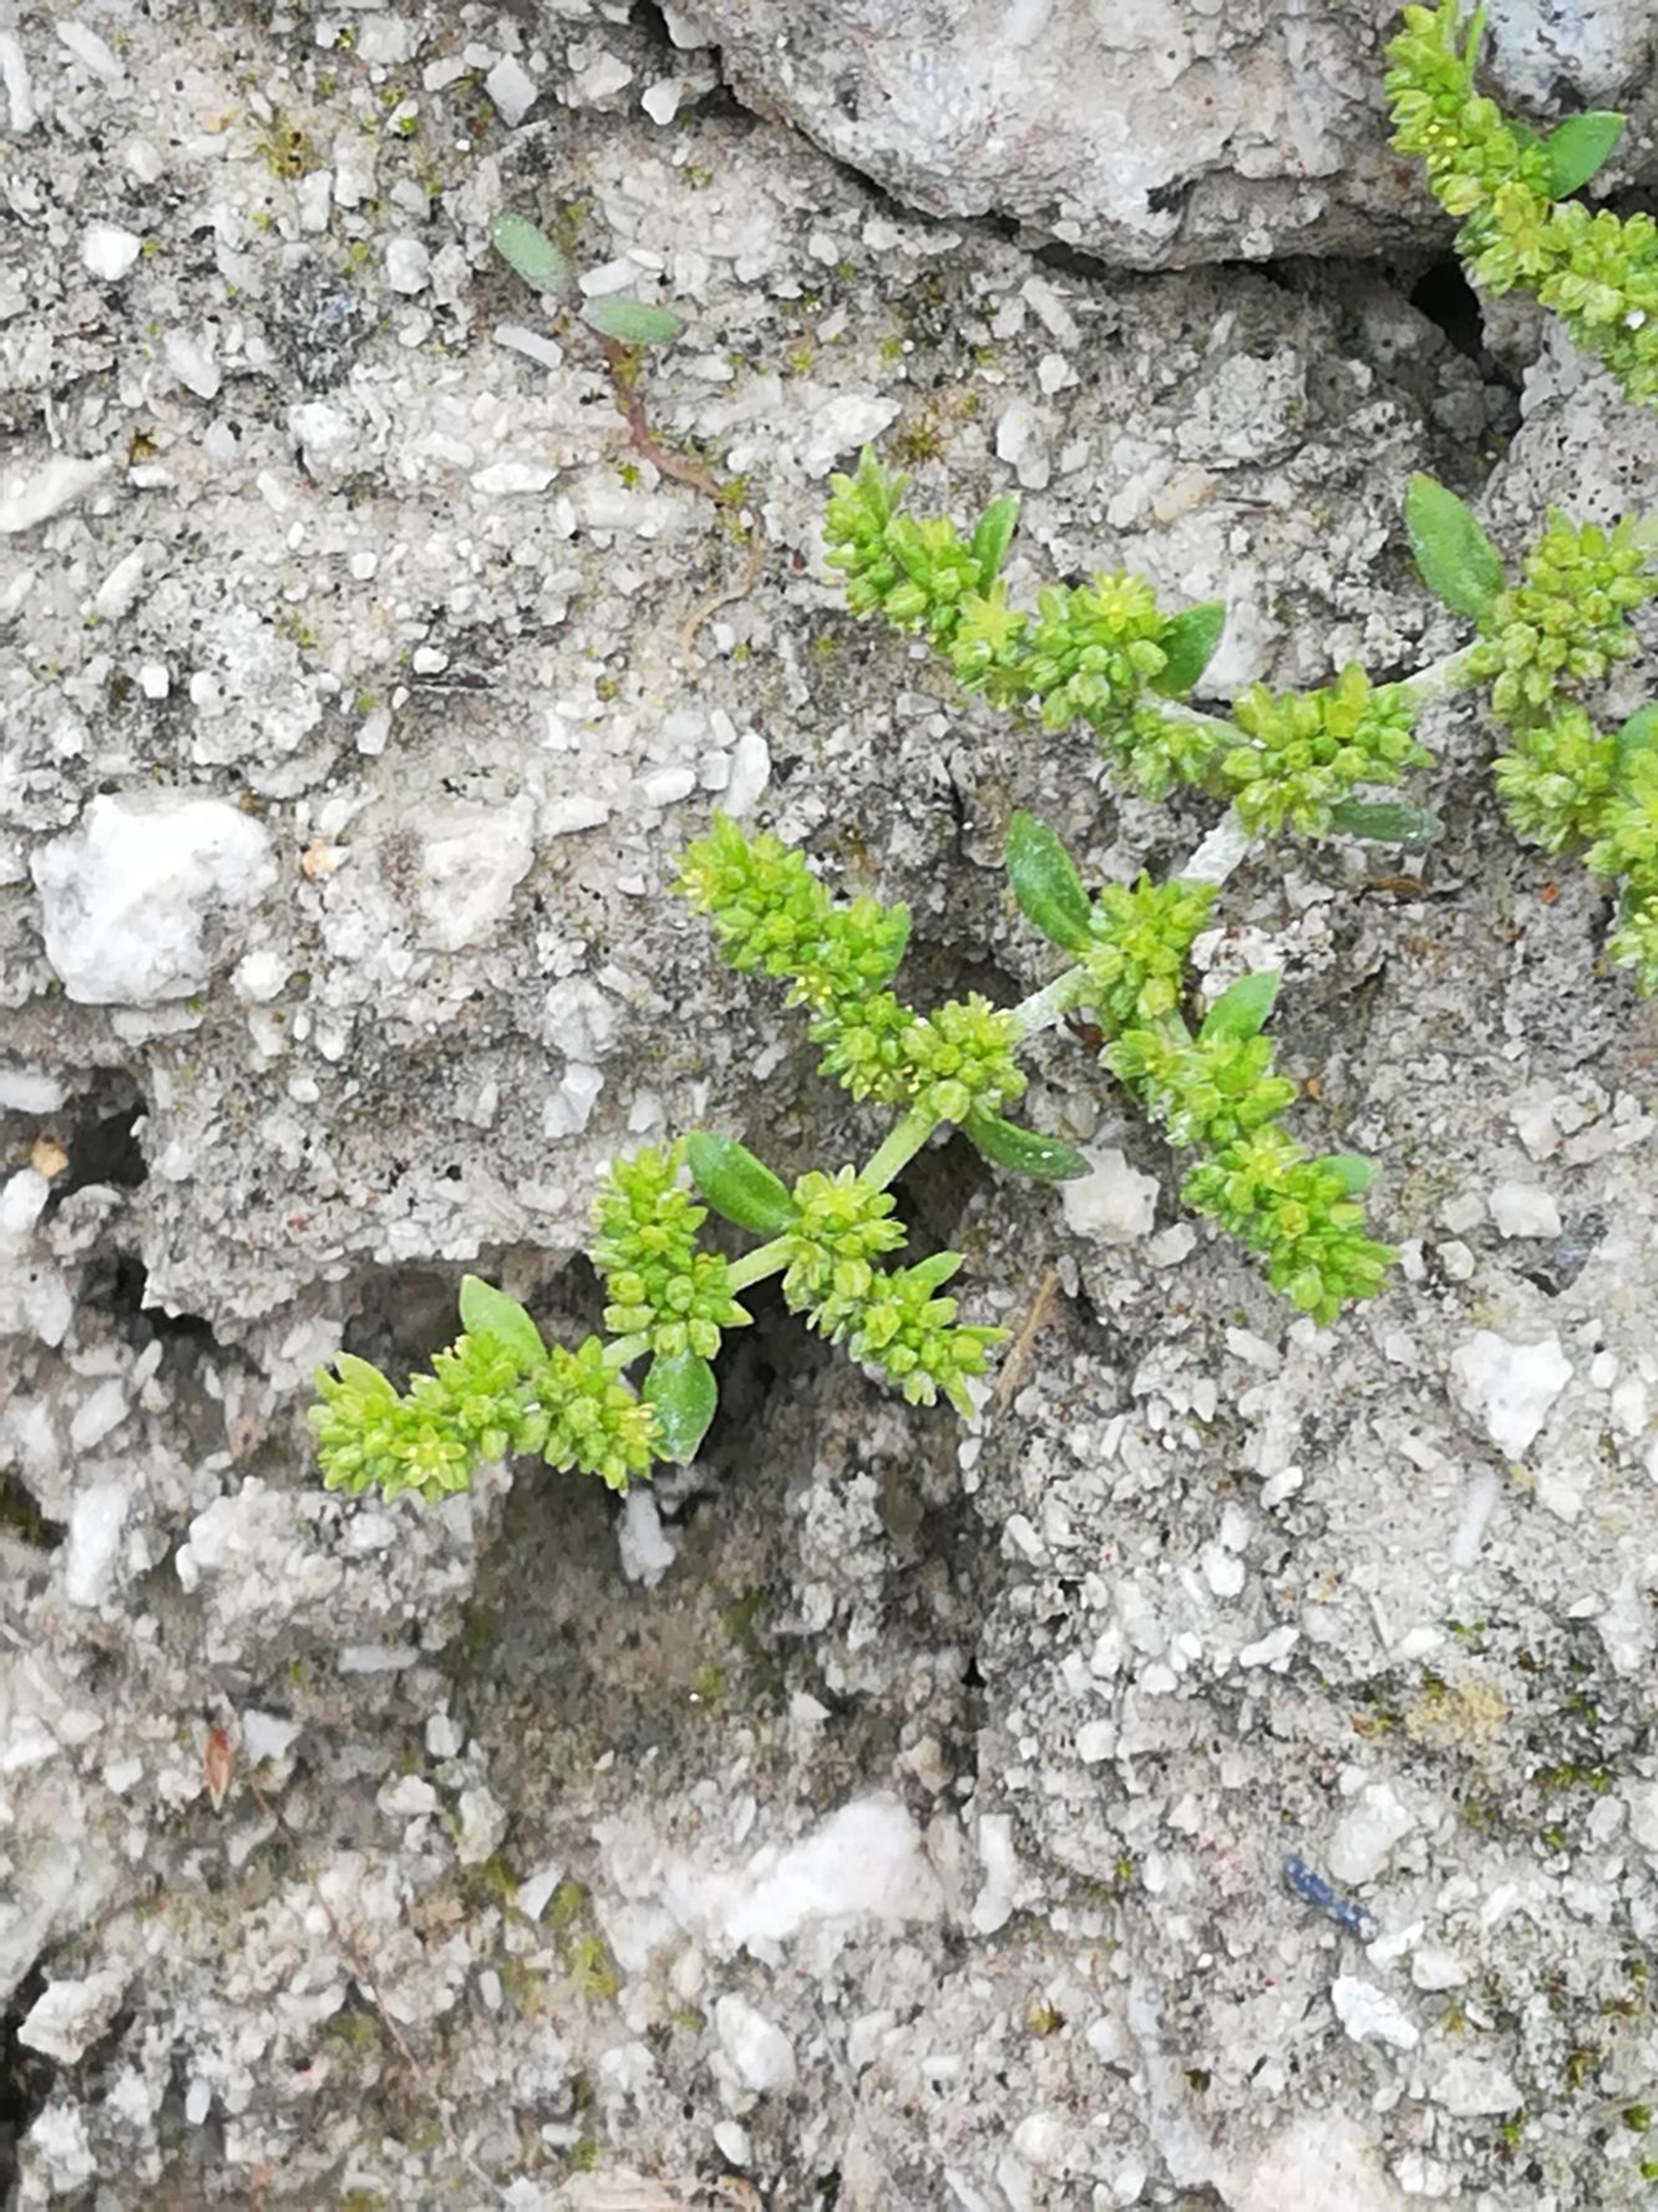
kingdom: Plantae
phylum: Tracheophyta
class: Magnoliopsida
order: Caryophyllales
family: Caryophyllaceae
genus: Herniaria
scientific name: Herniaria glabra
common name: Brudurt
